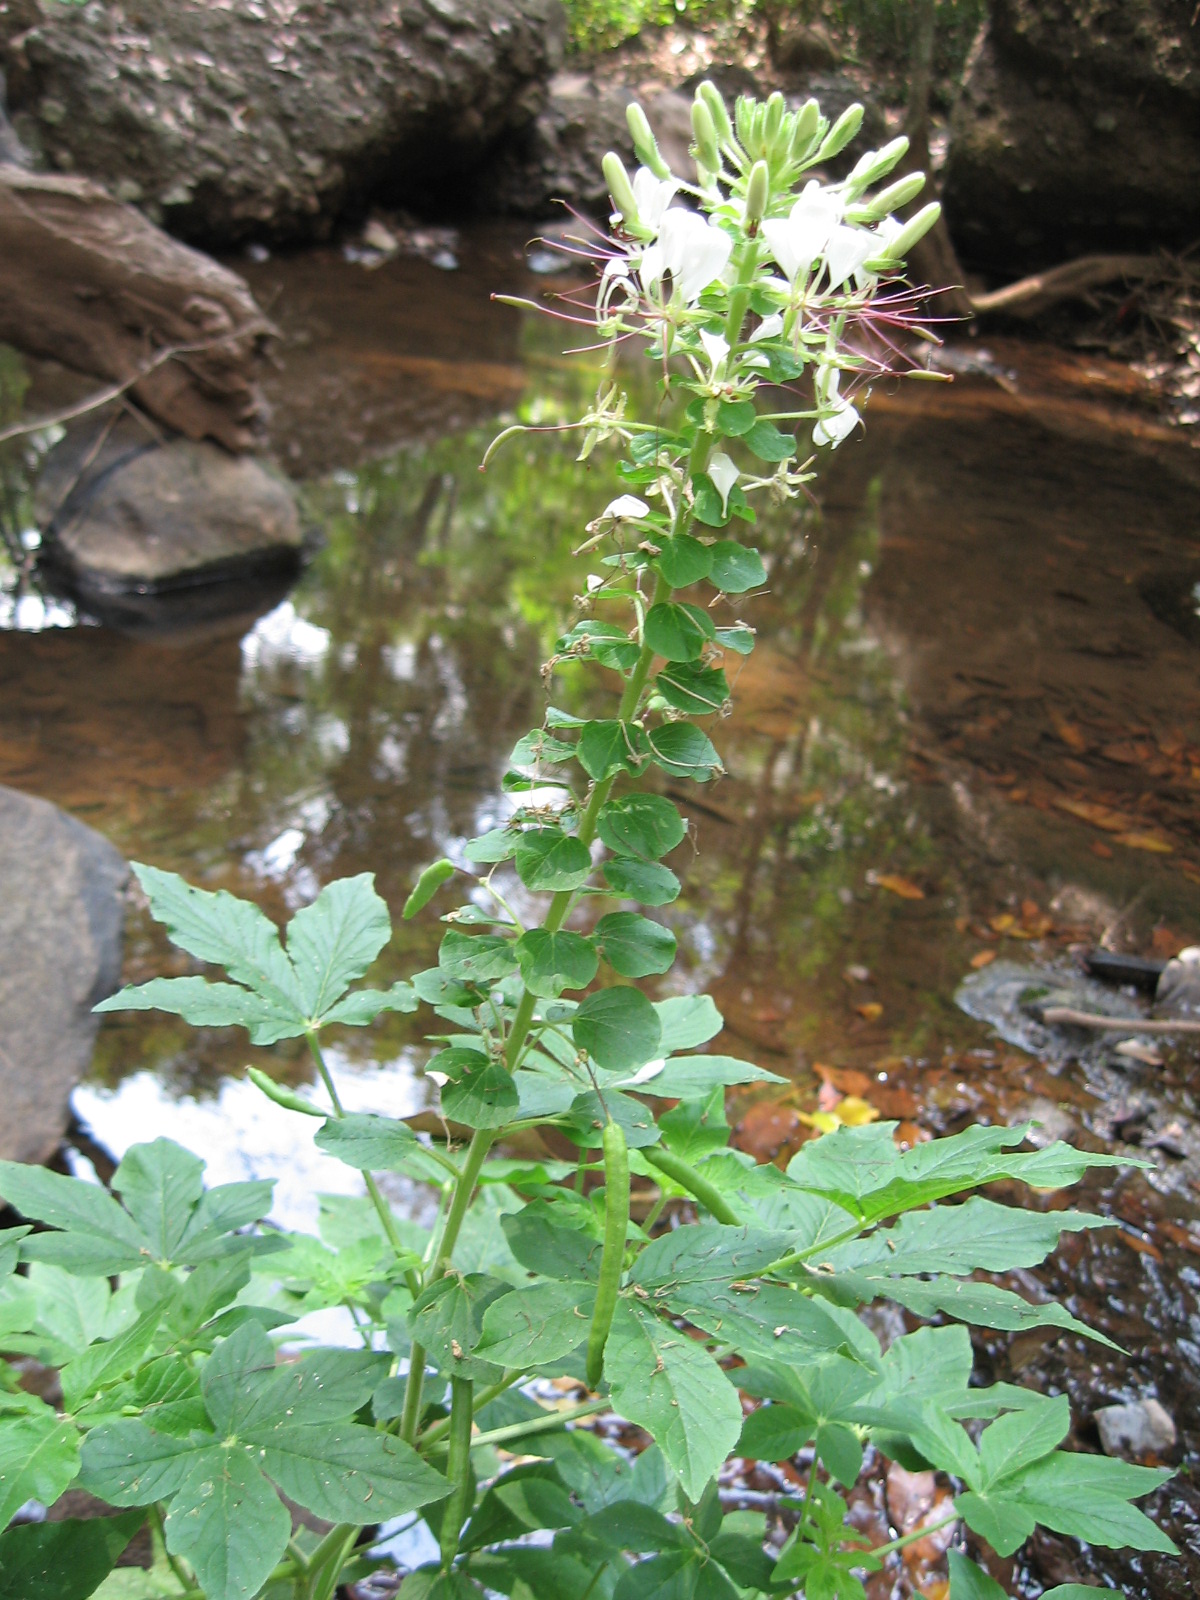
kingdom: Plantae
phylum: Tracheophyta
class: Magnoliopsida
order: Brassicales
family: Cleomaceae
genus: Tarenaya
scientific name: Tarenaya spinosa
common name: Spiny spiderflower
